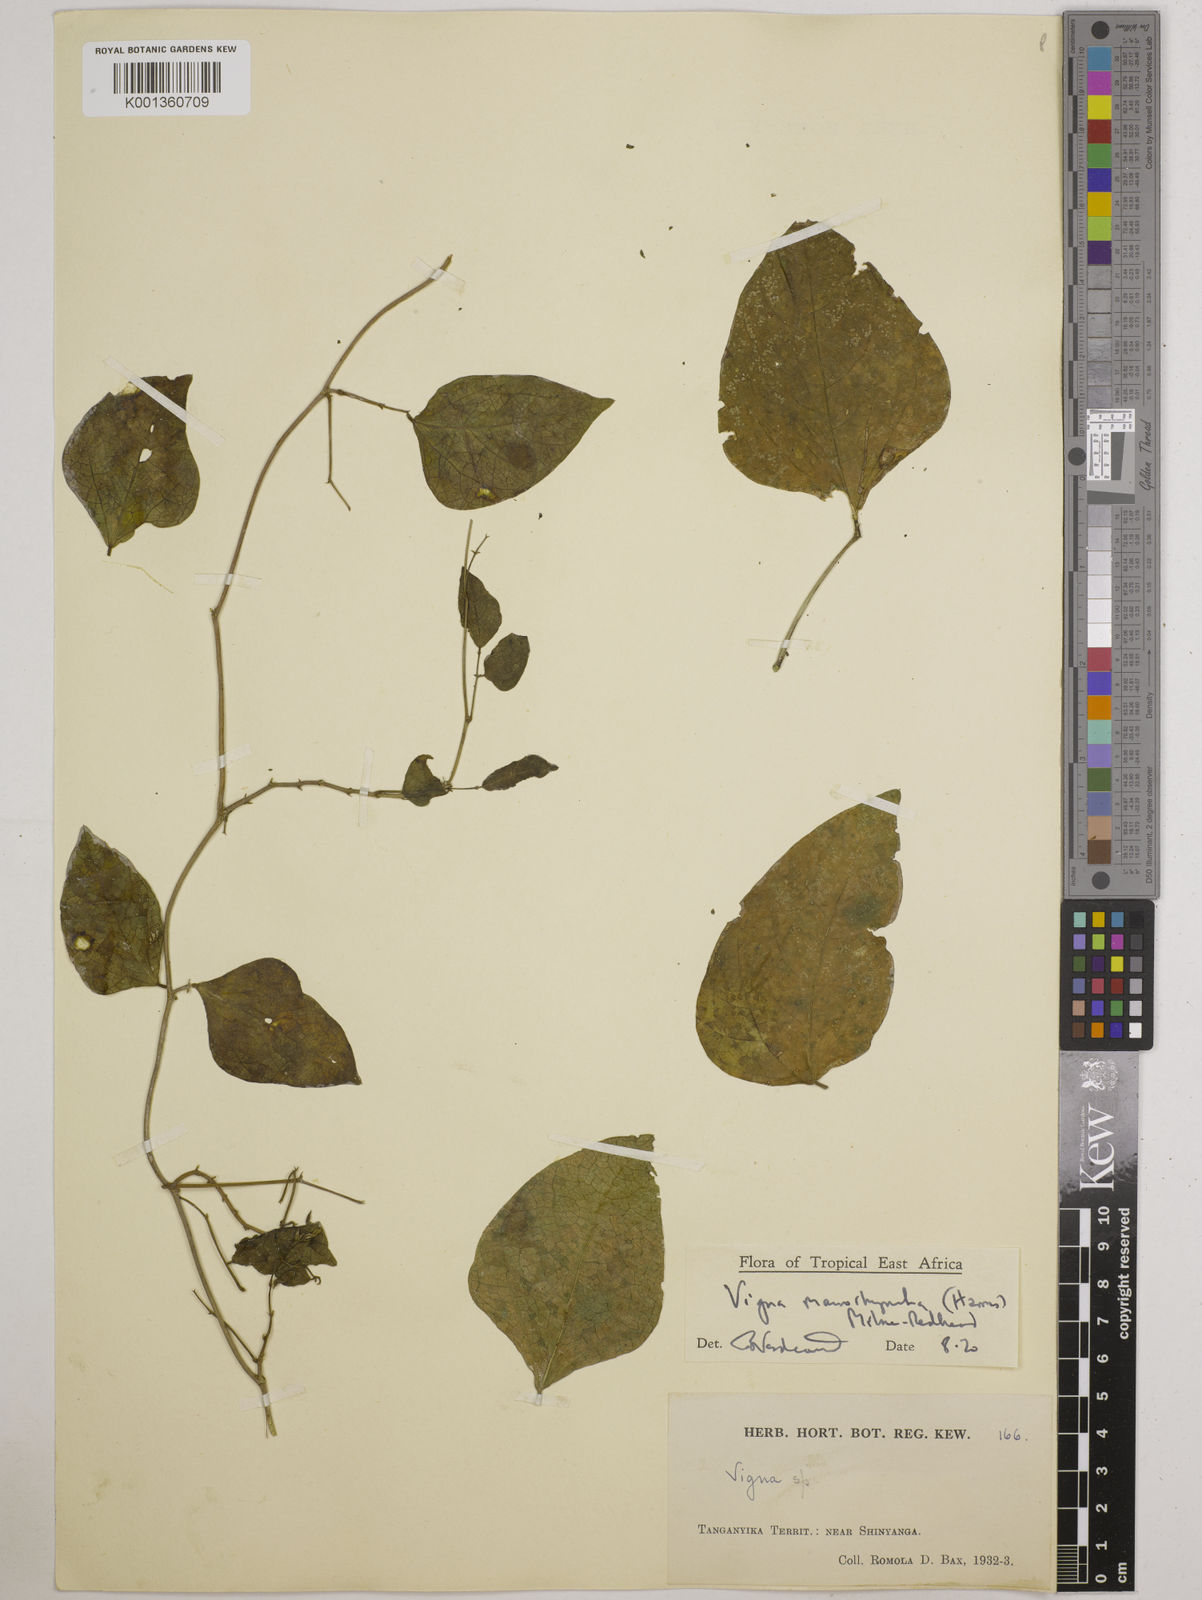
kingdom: Plantae
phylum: Tracheophyta
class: Magnoliopsida
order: Fabales
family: Fabaceae
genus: Wajira
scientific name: Wajira grahamiana
